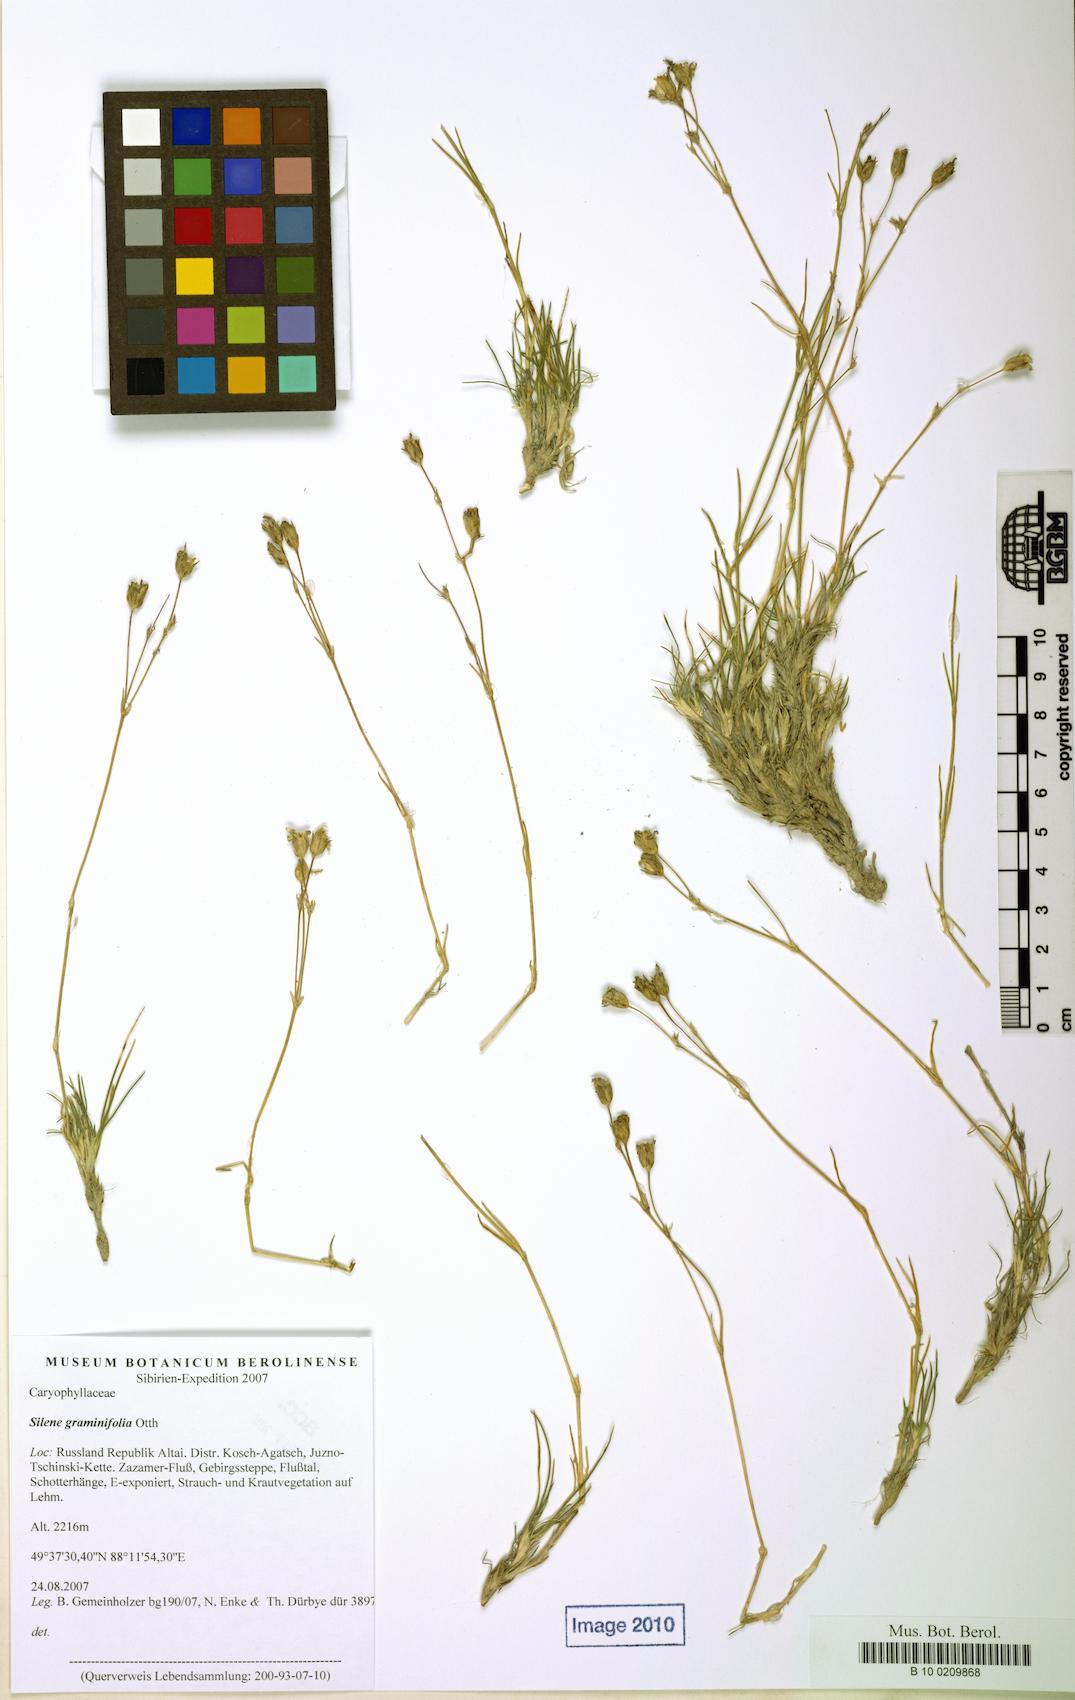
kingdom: Plantae
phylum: Tracheophyta
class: Magnoliopsida
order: Caryophyllales
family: Caryophyllaceae
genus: Silene
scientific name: Silene graminifolia
